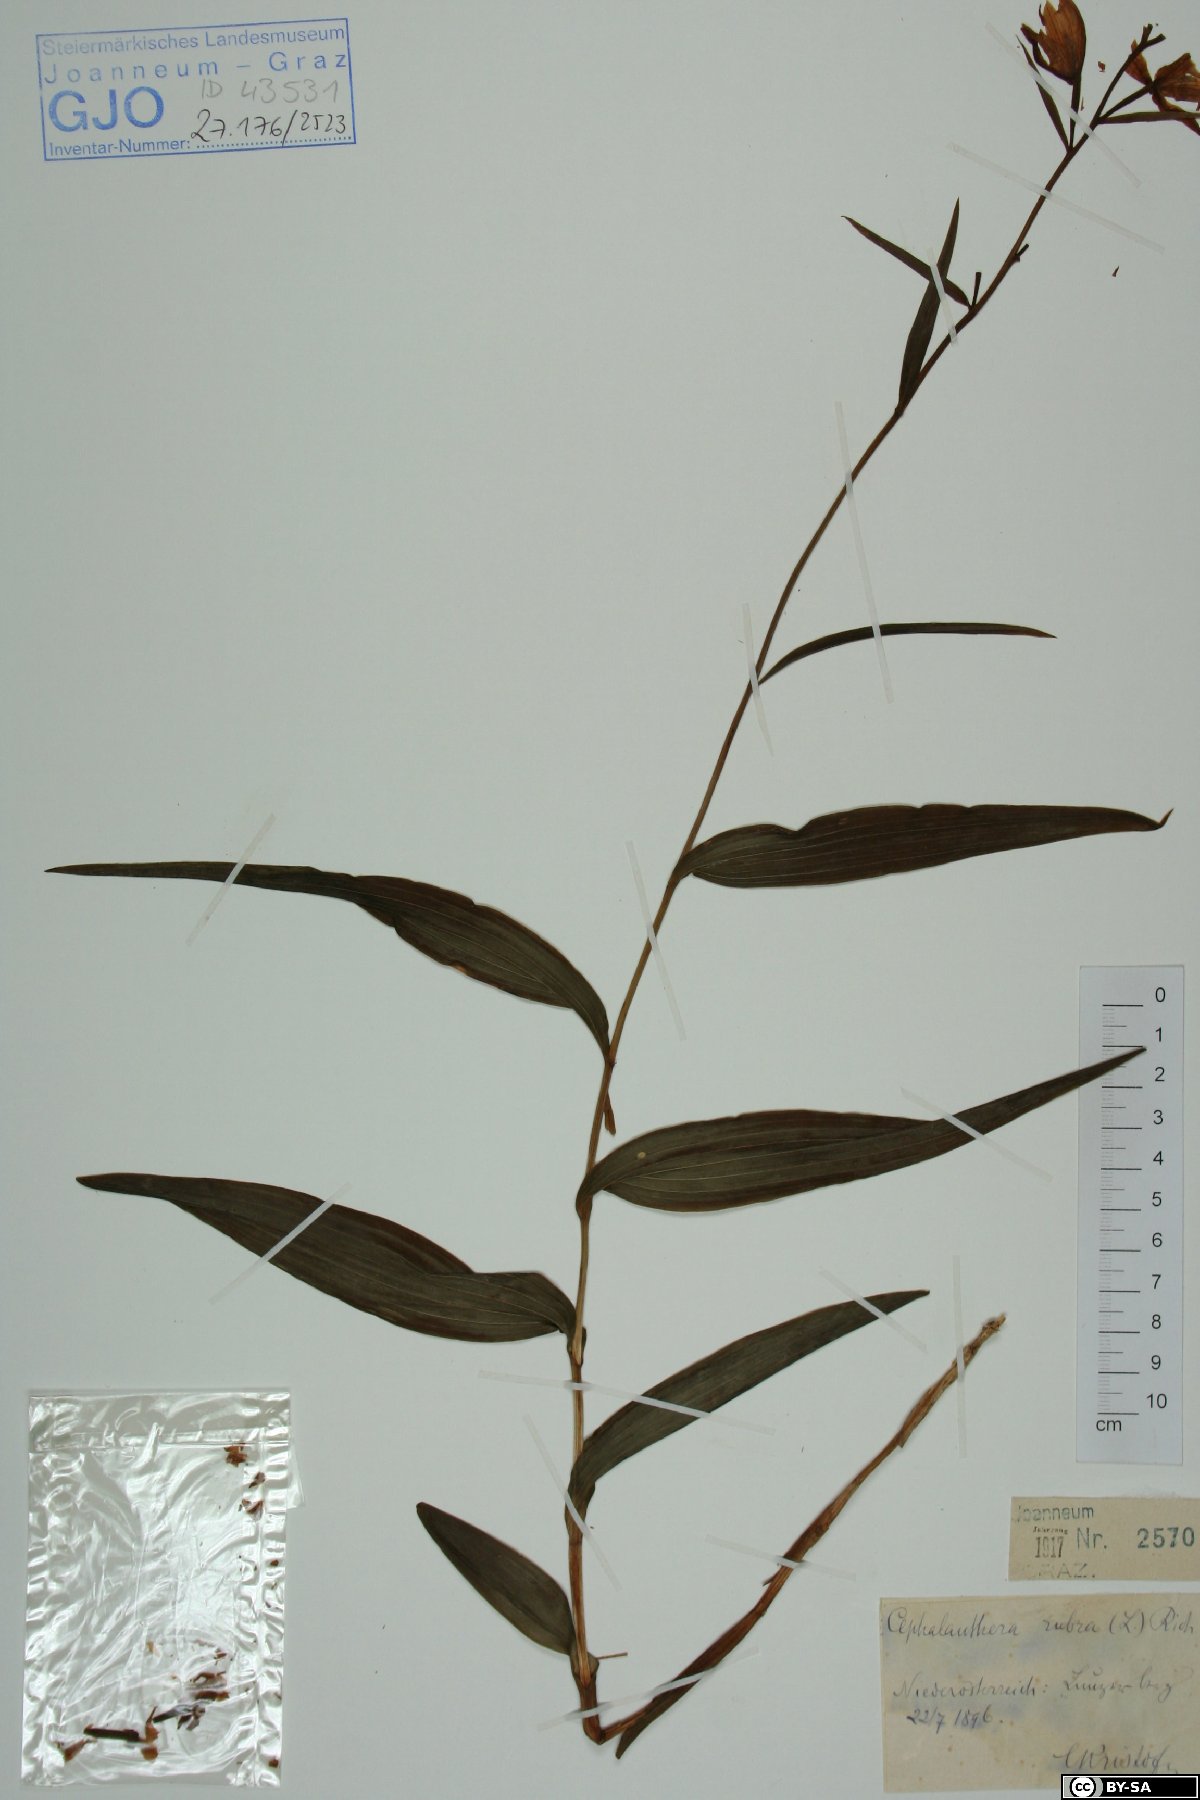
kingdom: Plantae
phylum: Tracheophyta
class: Liliopsida
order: Asparagales
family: Orchidaceae
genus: Cephalanthera
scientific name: Cephalanthera rubra
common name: Red helleborine
